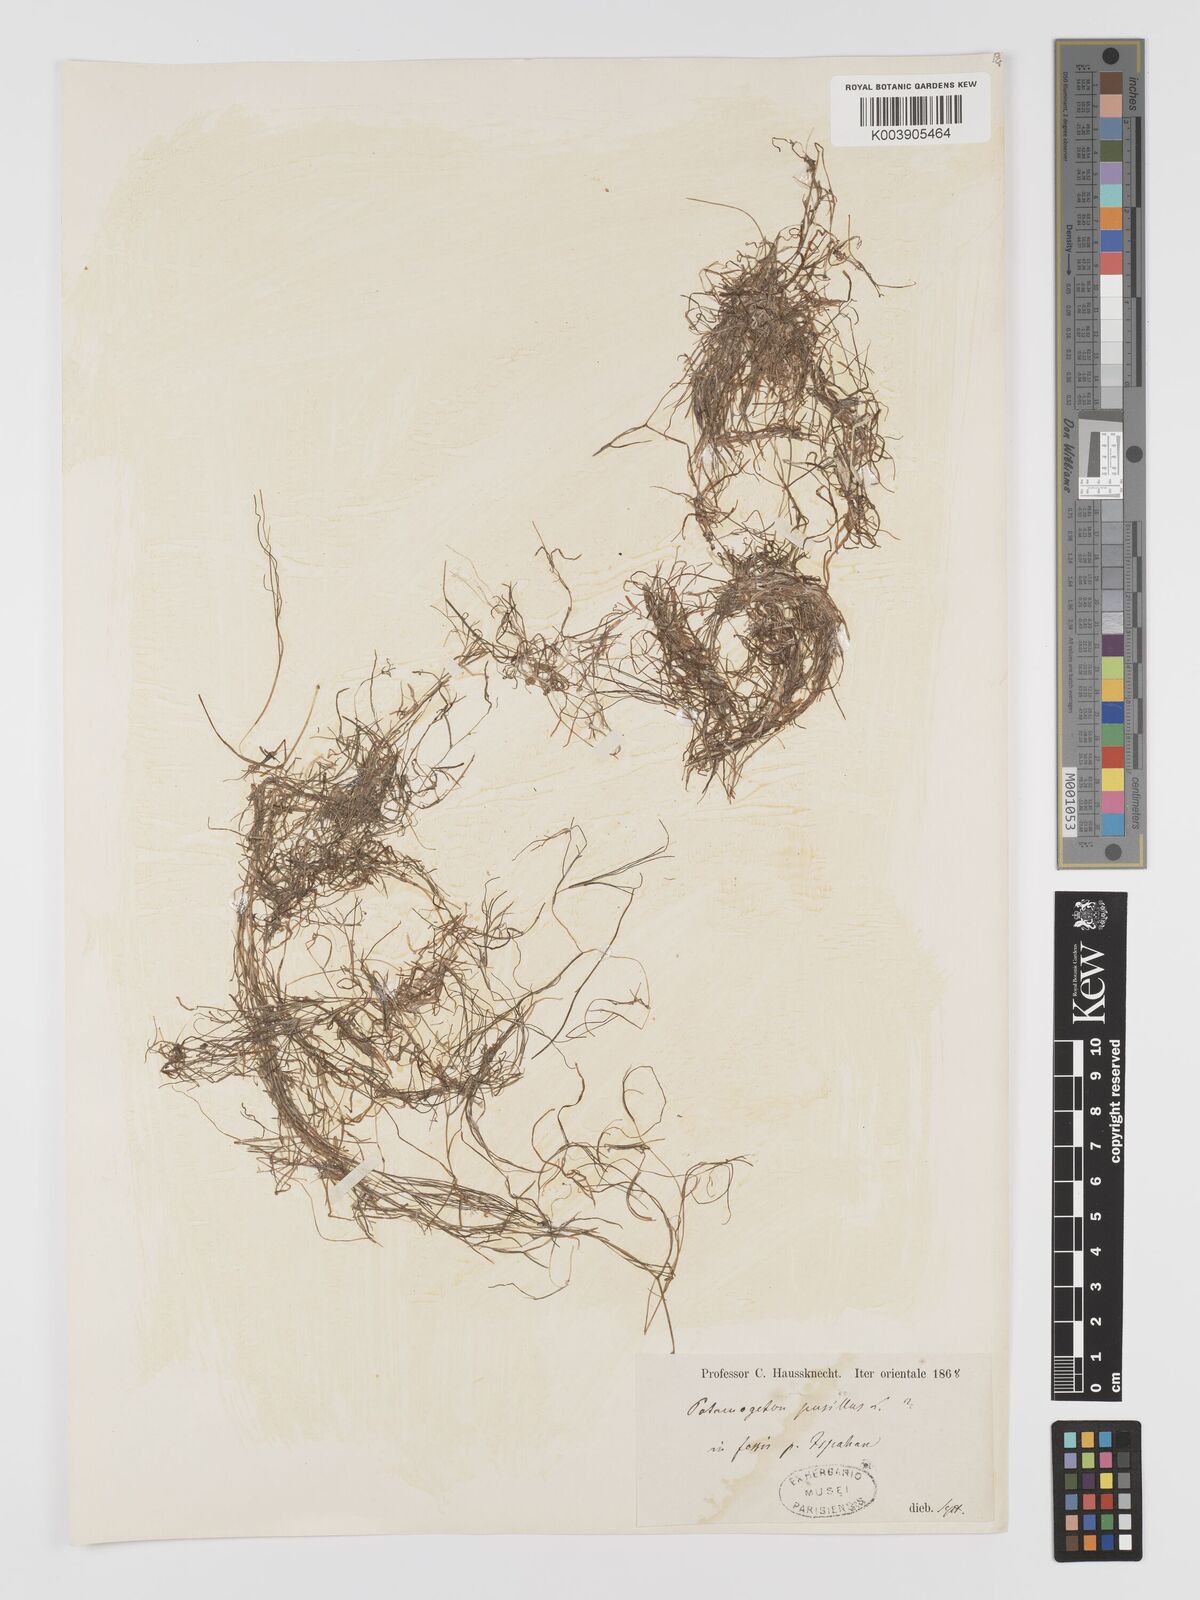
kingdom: Plantae
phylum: Tracheophyta
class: Liliopsida
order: Alismatales
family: Potamogetonaceae
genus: Potamogeton
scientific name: Potamogeton
